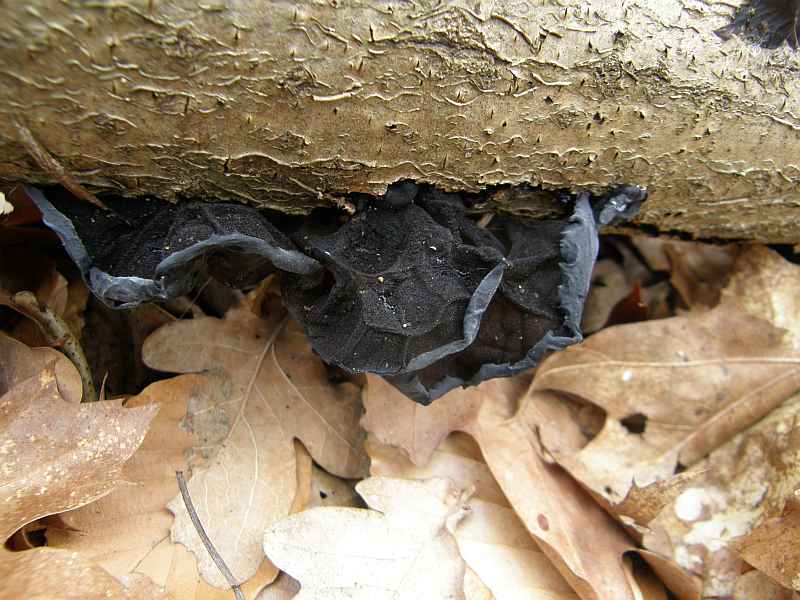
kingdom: Fungi
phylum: Basidiomycota
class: Agaricomycetes
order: Auriculariales
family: Auriculariaceae
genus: Exidia
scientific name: Exidia glandulosa
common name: ege-bævretop
